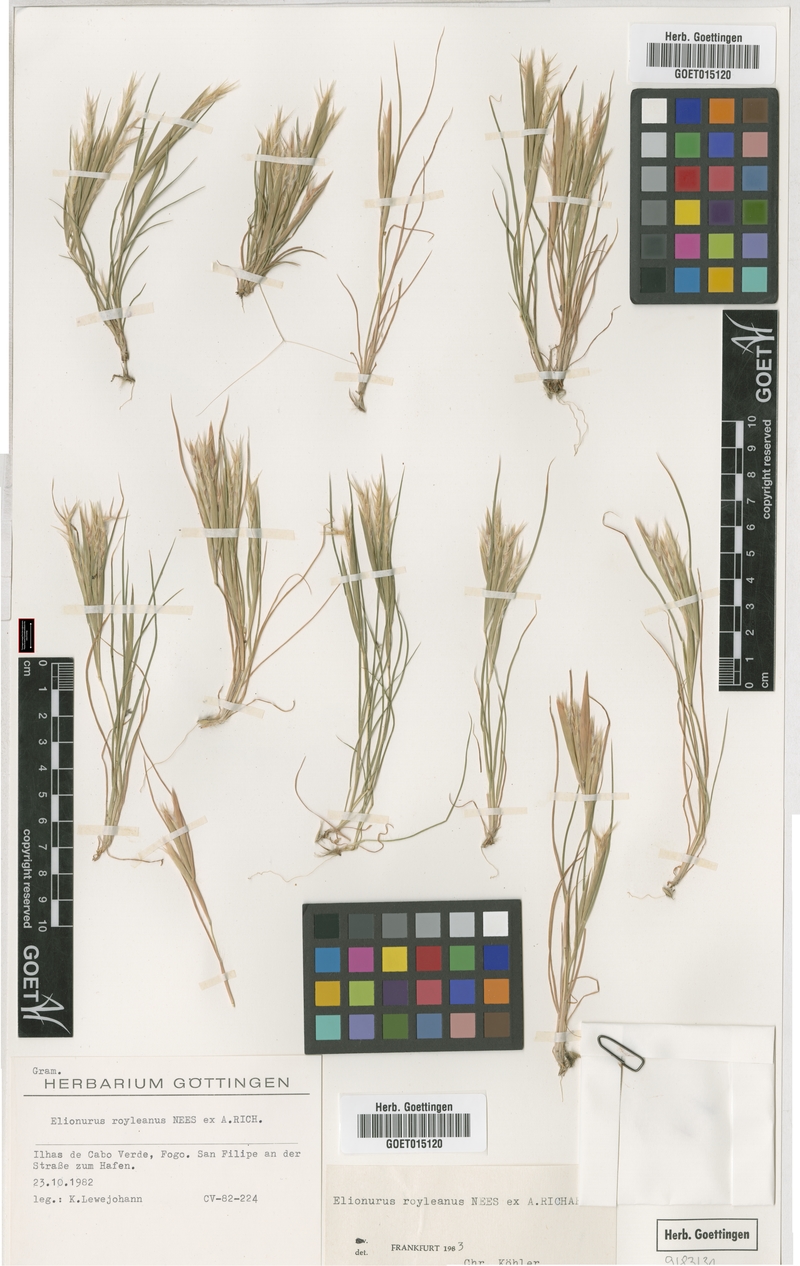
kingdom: Plantae
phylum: Tracheophyta
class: Liliopsida
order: Poales
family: Poaceae
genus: Elionurus
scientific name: Elionurus royleanus
